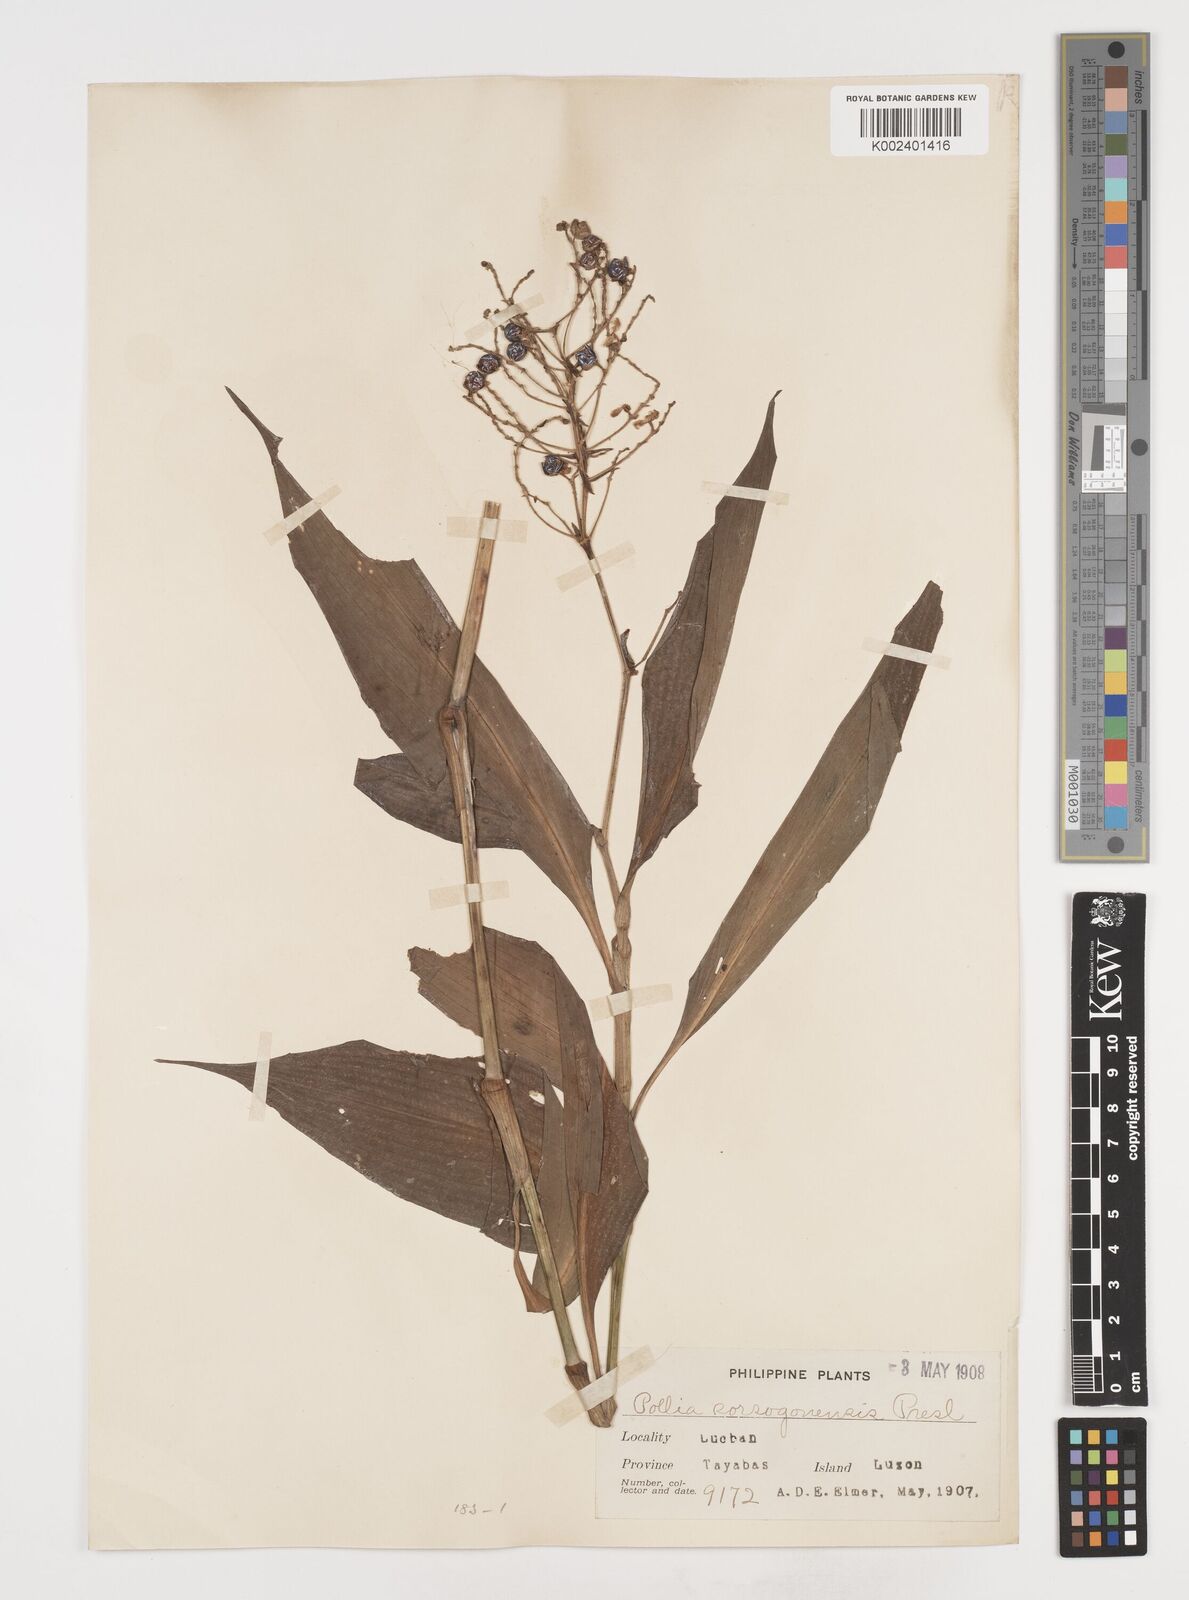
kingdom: Plantae
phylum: Tracheophyta
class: Liliopsida
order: Commelinales
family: Commelinaceae
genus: Pollia
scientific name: Pollia secundiflora
